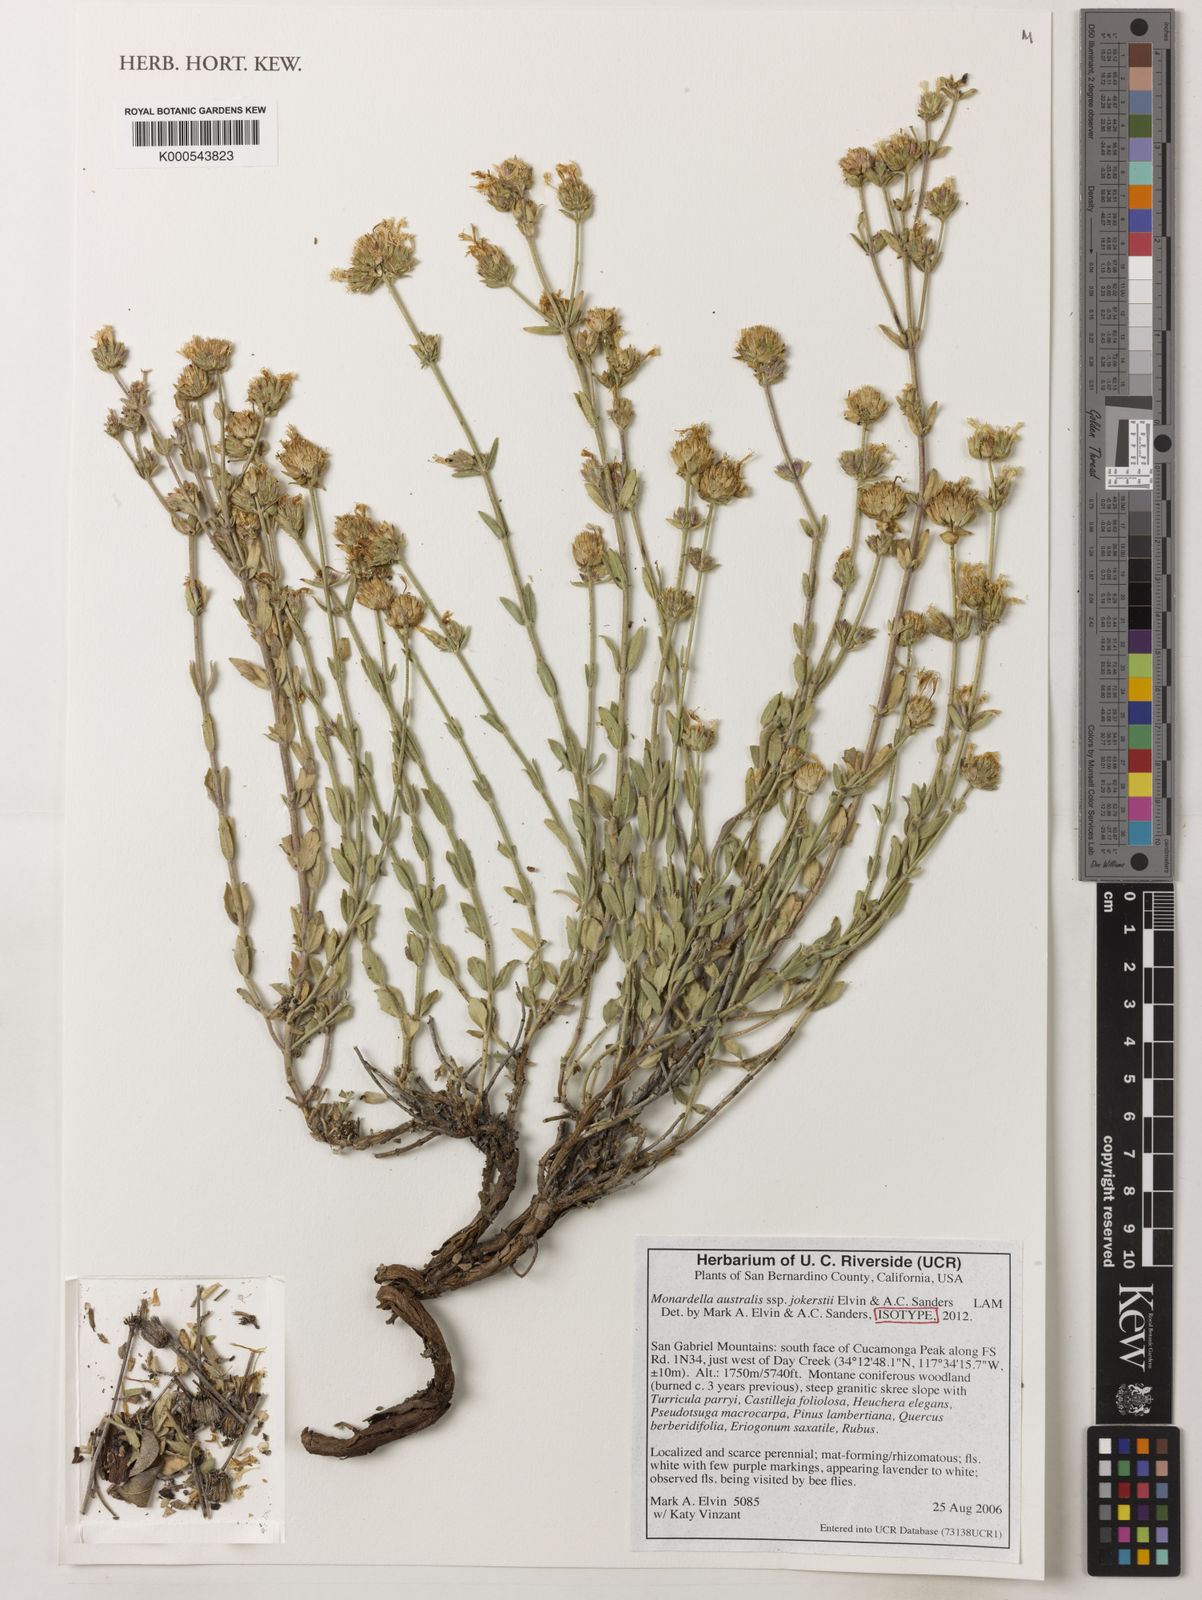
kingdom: Plantae
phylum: Tracheophyta
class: Magnoliopsida
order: Lamiales
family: Lamiaceae
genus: Monardella
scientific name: Monardella australis
